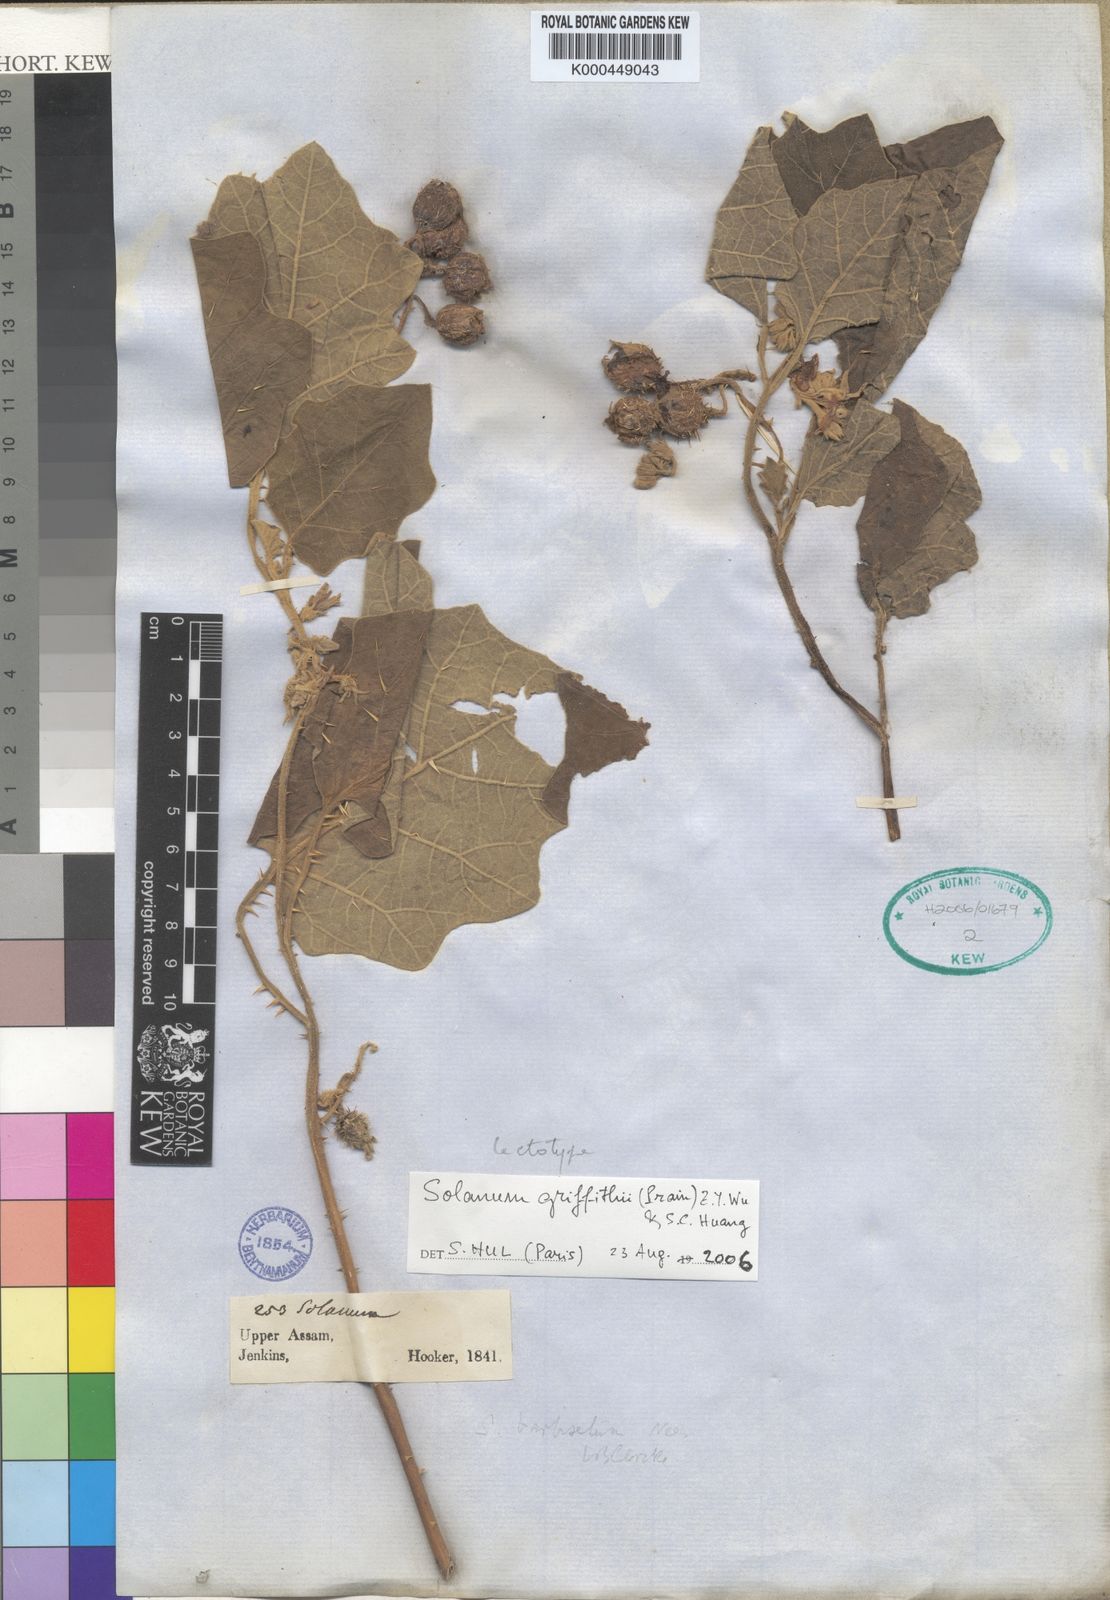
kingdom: Plantae
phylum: Tracheophyta
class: Magnoliopsida
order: Solanales
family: Solanaceae
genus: Solanum
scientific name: Solanum praetermissum
